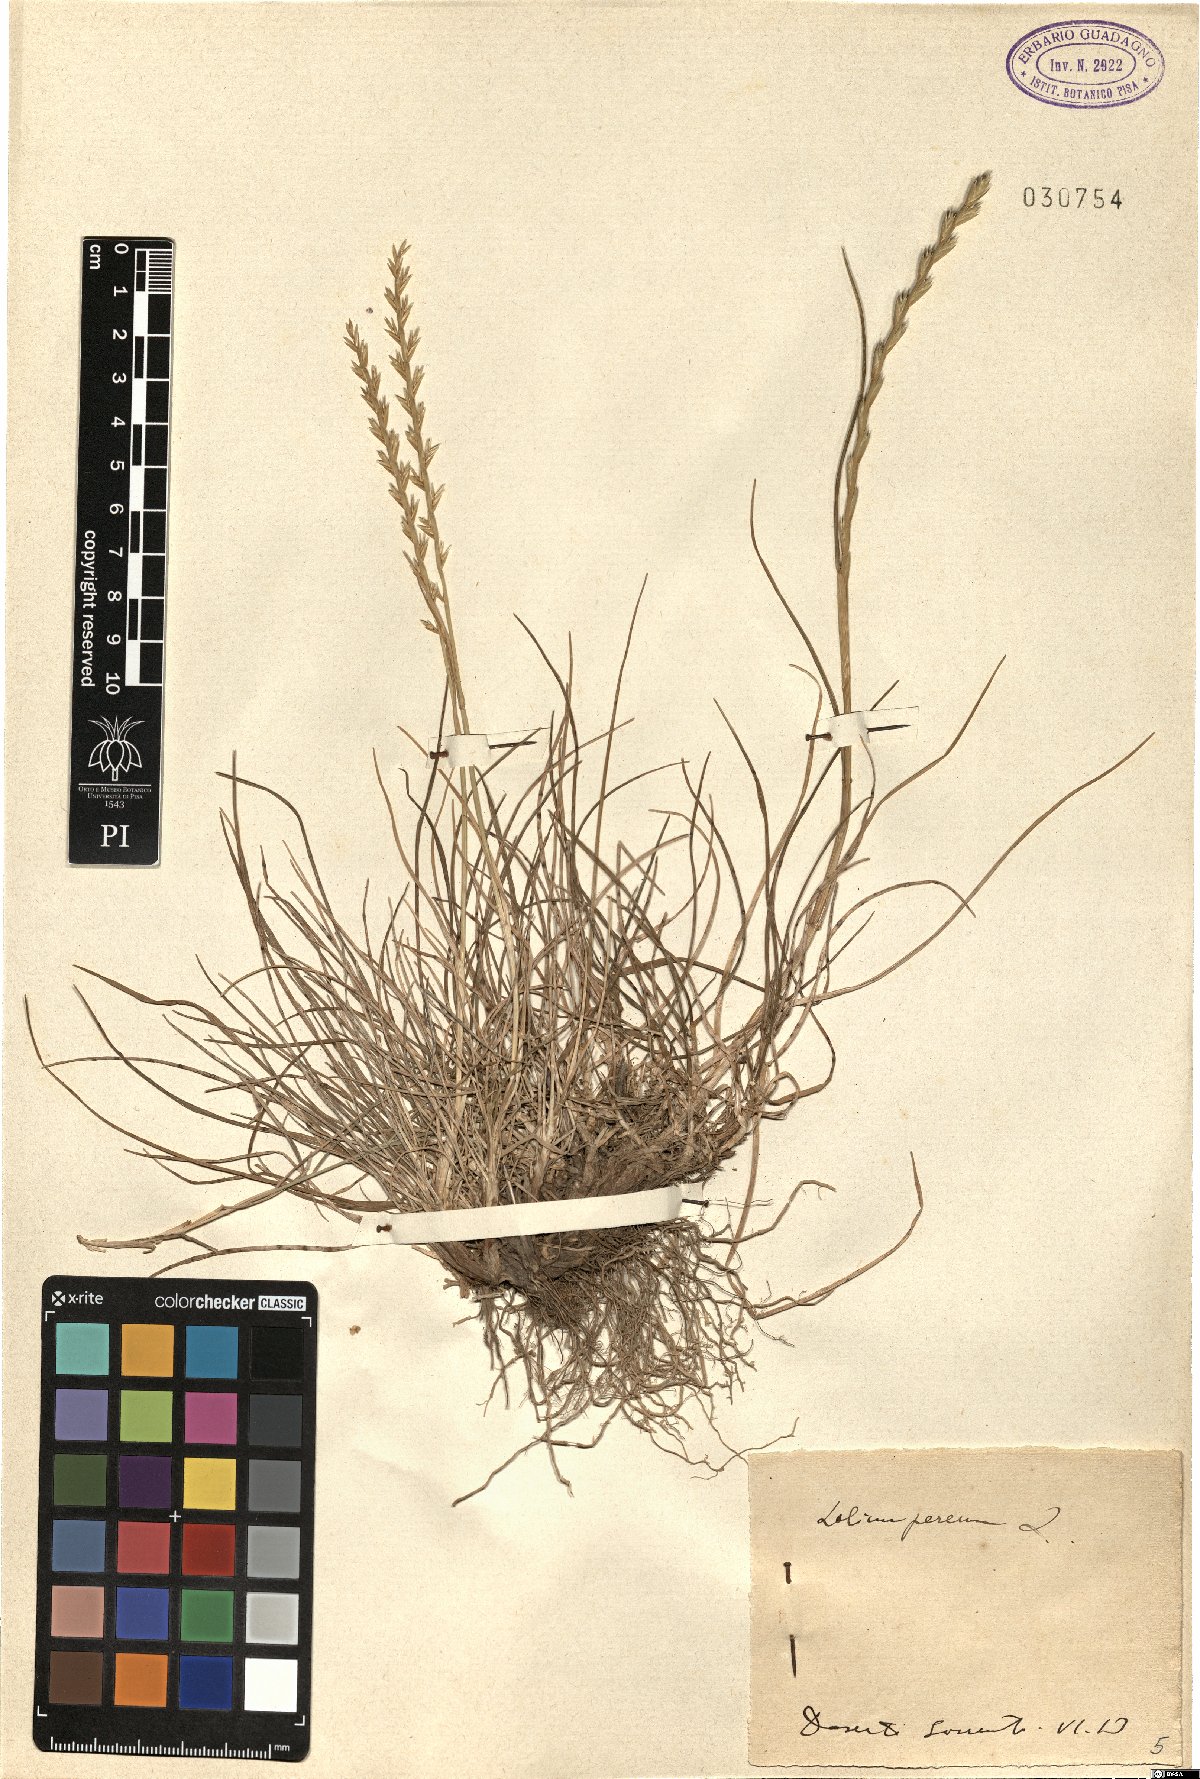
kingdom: Plantae
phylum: Tracheophyta
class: Liliopsida
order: Poales
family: Poaceae
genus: Lolium
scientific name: Lolium perenne
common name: Perennial ryegrass
